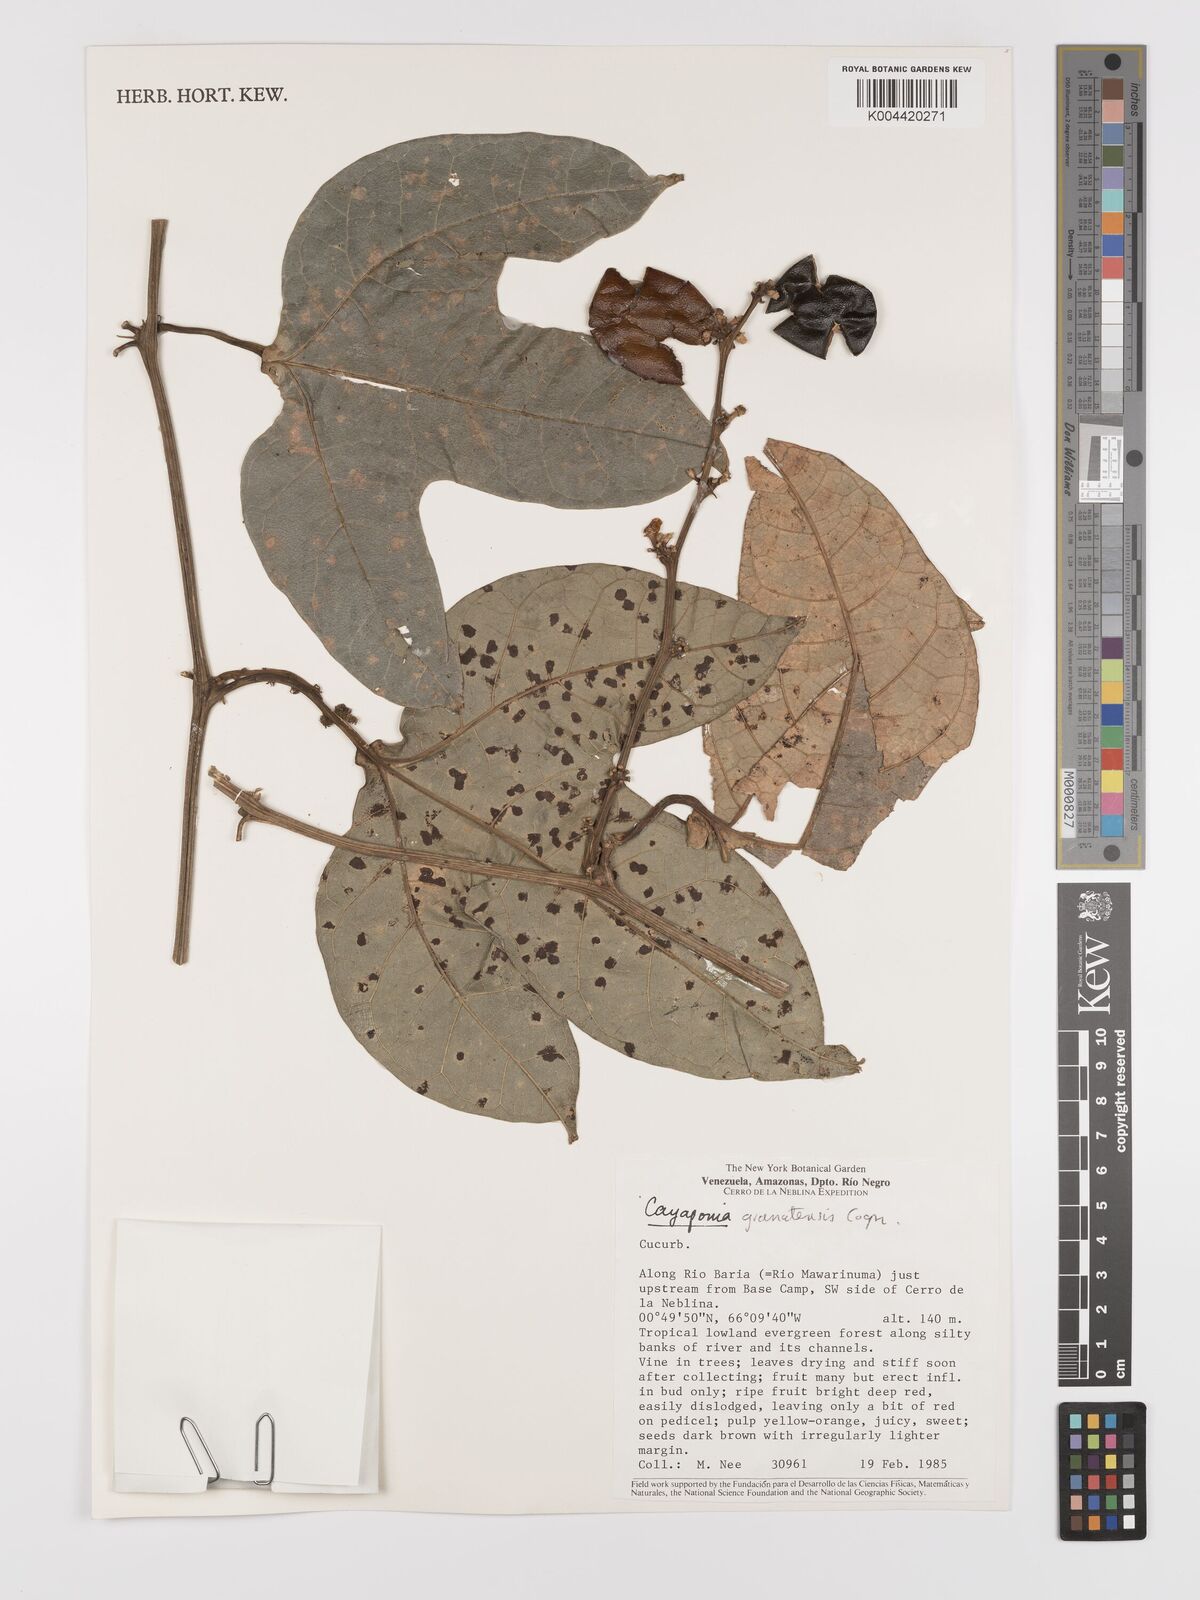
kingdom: Plantae
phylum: Tracheophyta
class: Magnoliopsida
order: Cucurbitales
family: Cucurbitaceae
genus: Cayaponia
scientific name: Cayaponia granatensis
